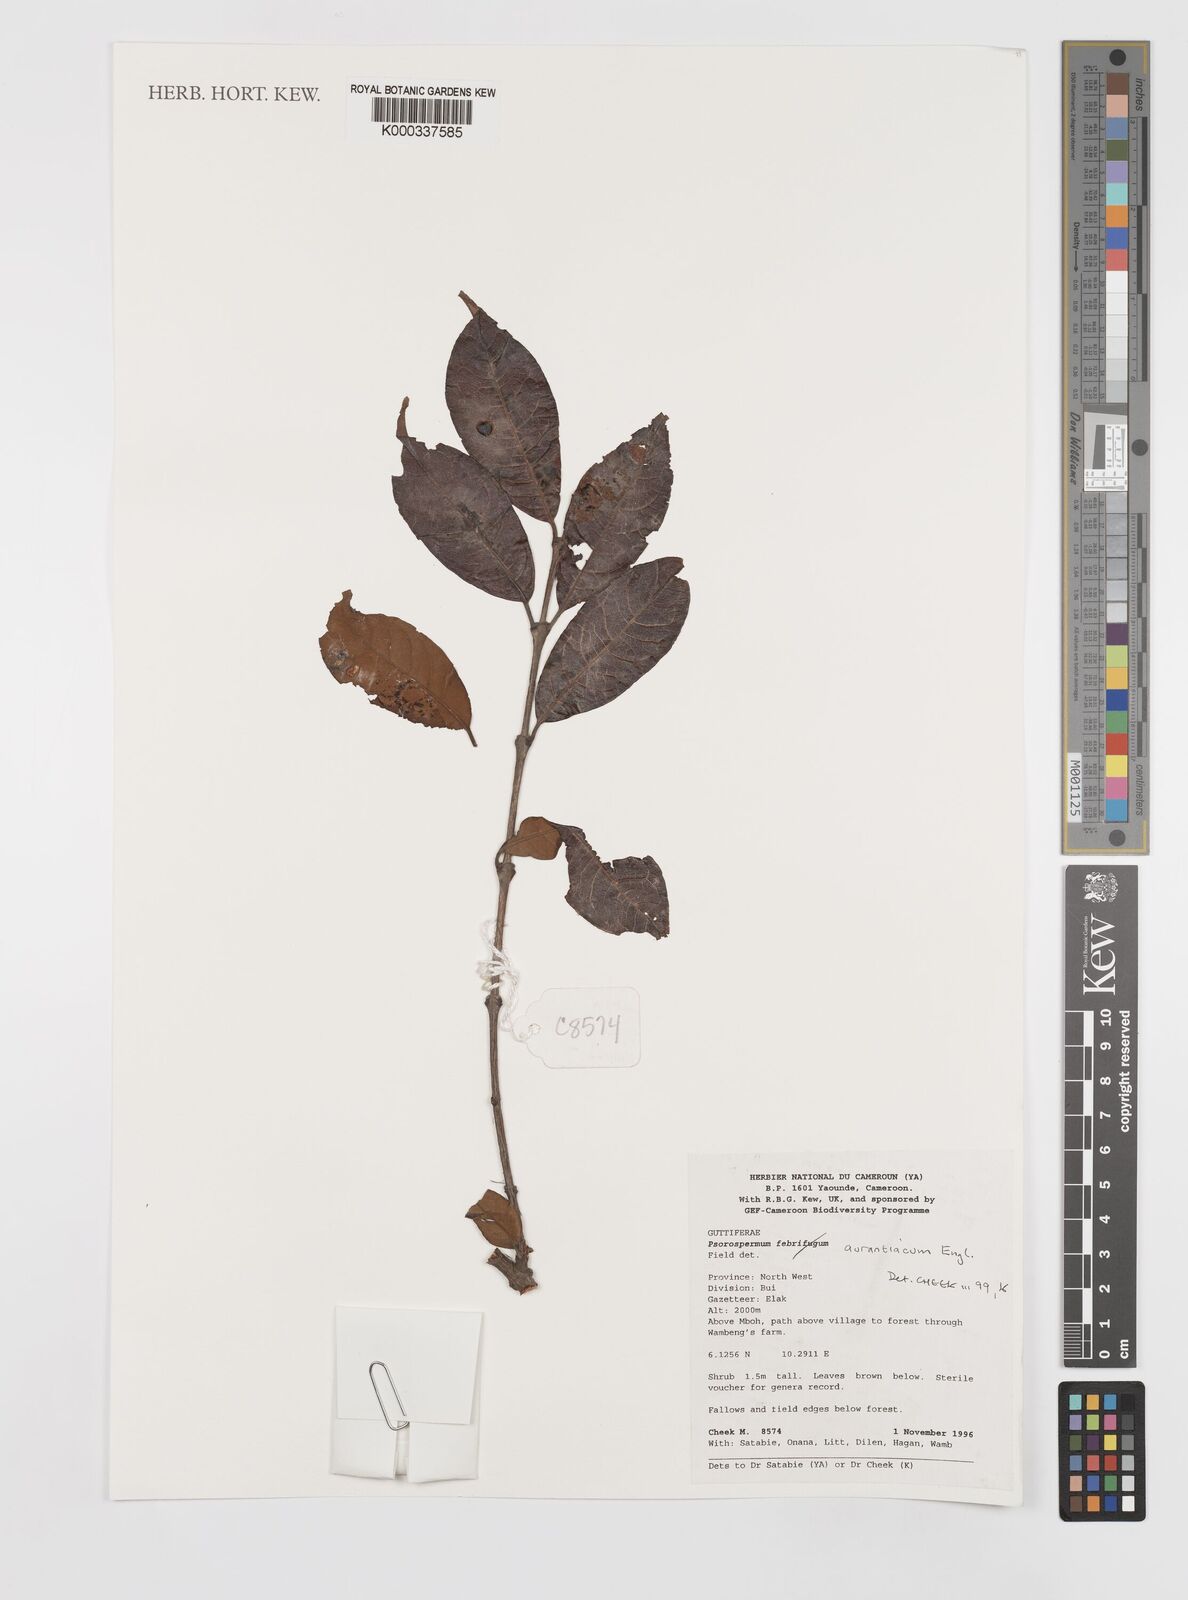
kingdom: Plantae
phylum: Tracheophyta
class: Magnoliopsida
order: Malpighiales
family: Hypericaceae
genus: Psorospermum
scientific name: Psorospermum aurantiacum
